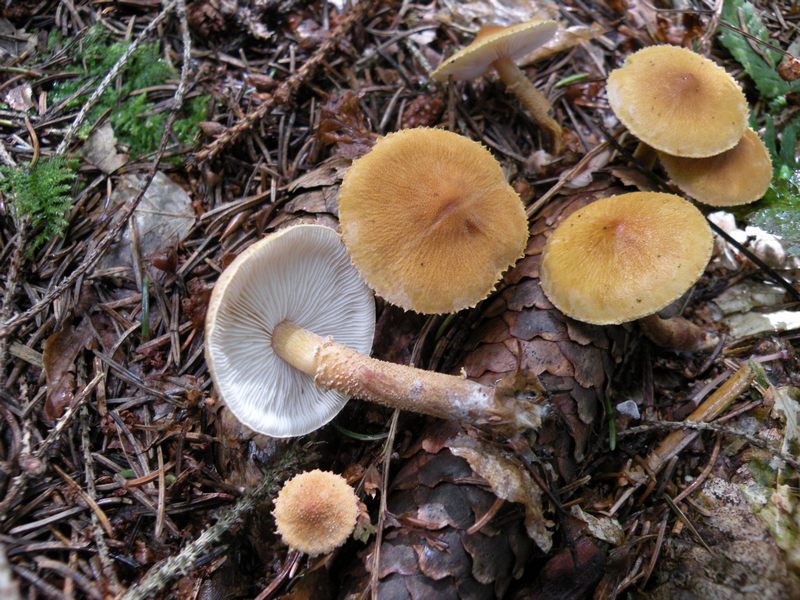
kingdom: Fungi
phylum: Basidiomycota
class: Agaricomycetes
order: Agaricales
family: Tricholomataceae
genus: Cystoderma
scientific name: Cystoderma amianthinum
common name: okkergul grynhat
